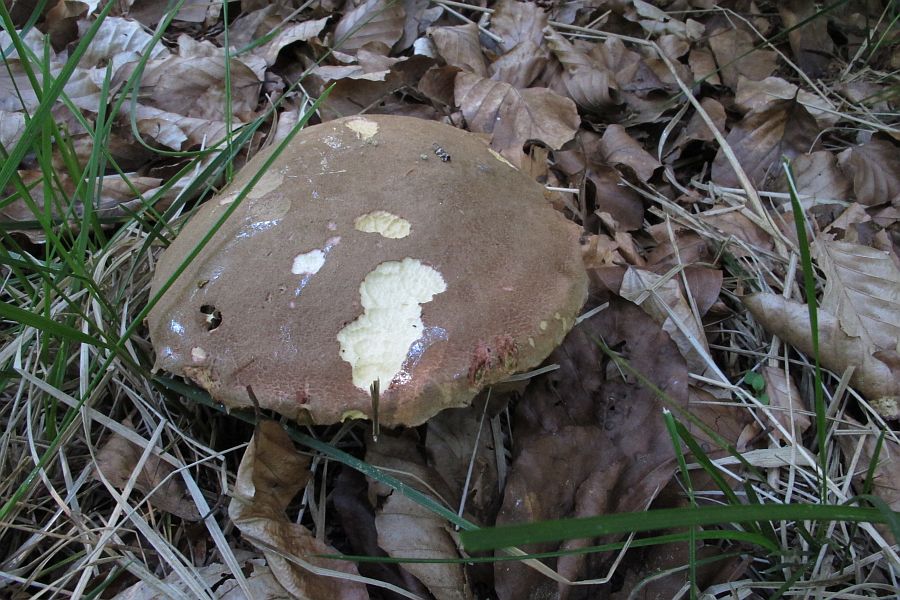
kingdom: Fungi
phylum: Basidiomycota
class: Agaricomycetes
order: Boletales
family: Boletaceae
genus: Xerocomellus
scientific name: Xerocomellus chrysenteron
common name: rødsprukken rørhat
